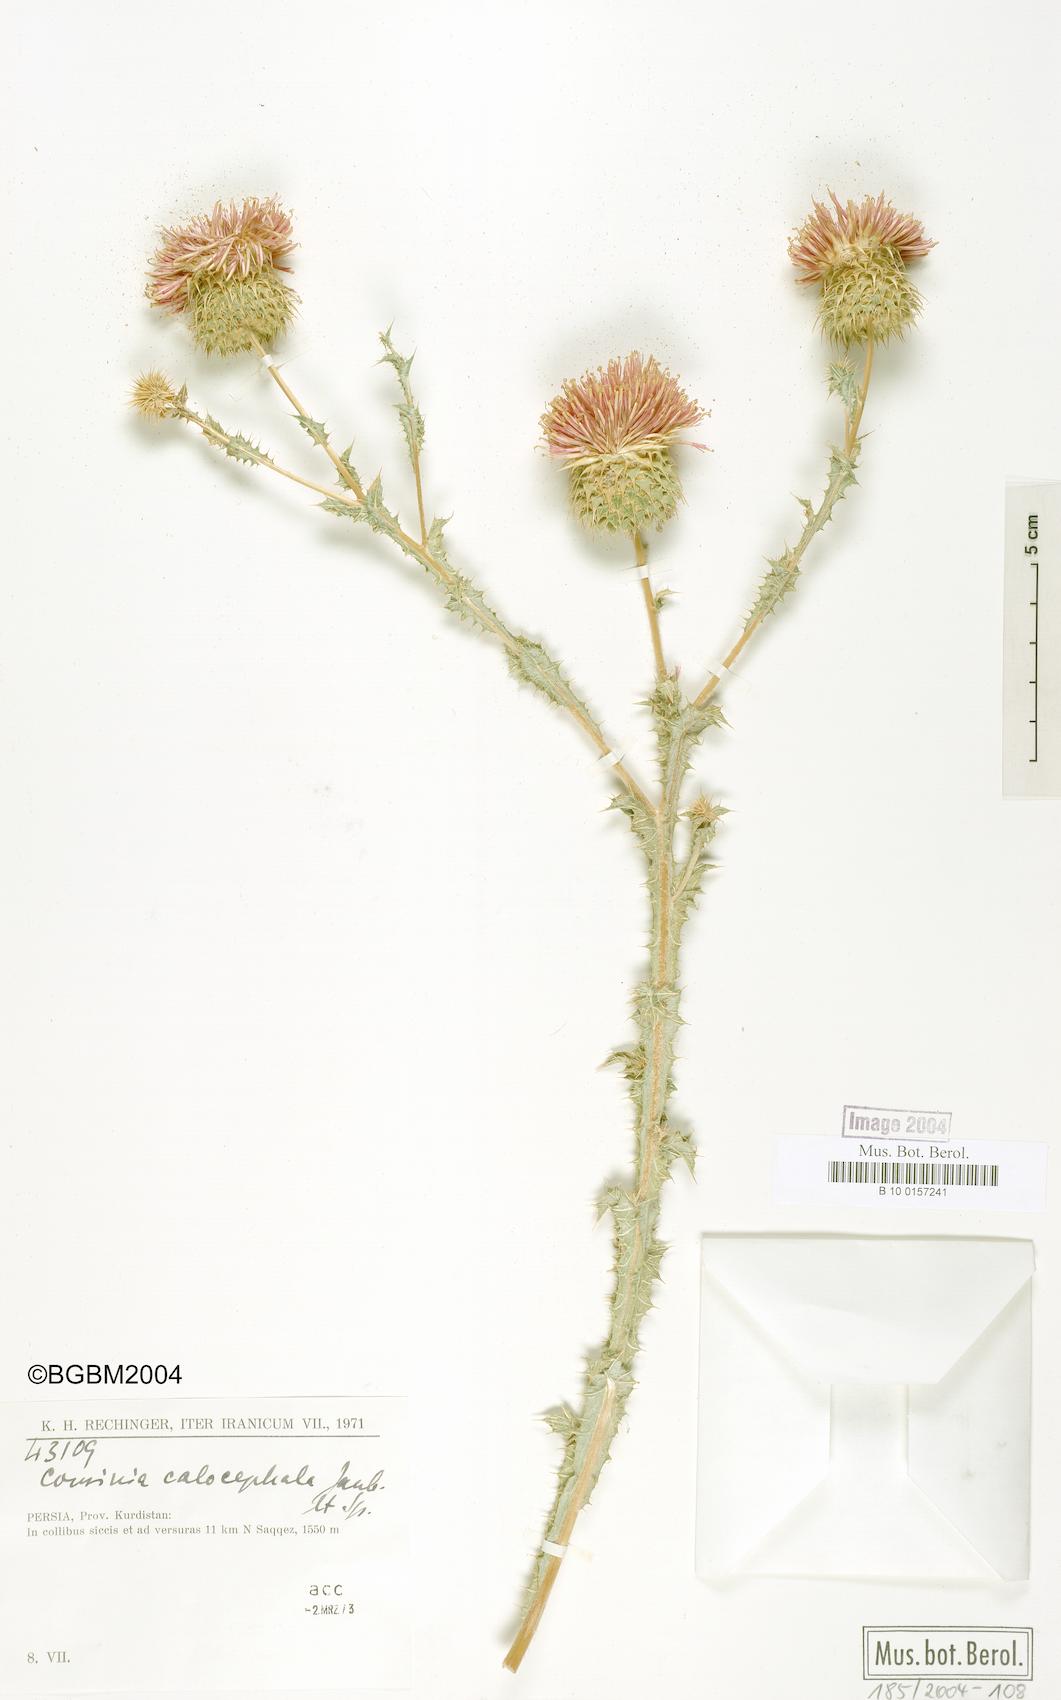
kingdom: Plantae
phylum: Tracheophyta
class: Magnoliopsida
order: Asterales
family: Asteraceae
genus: Cousinia
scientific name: Cousinia calocephala
